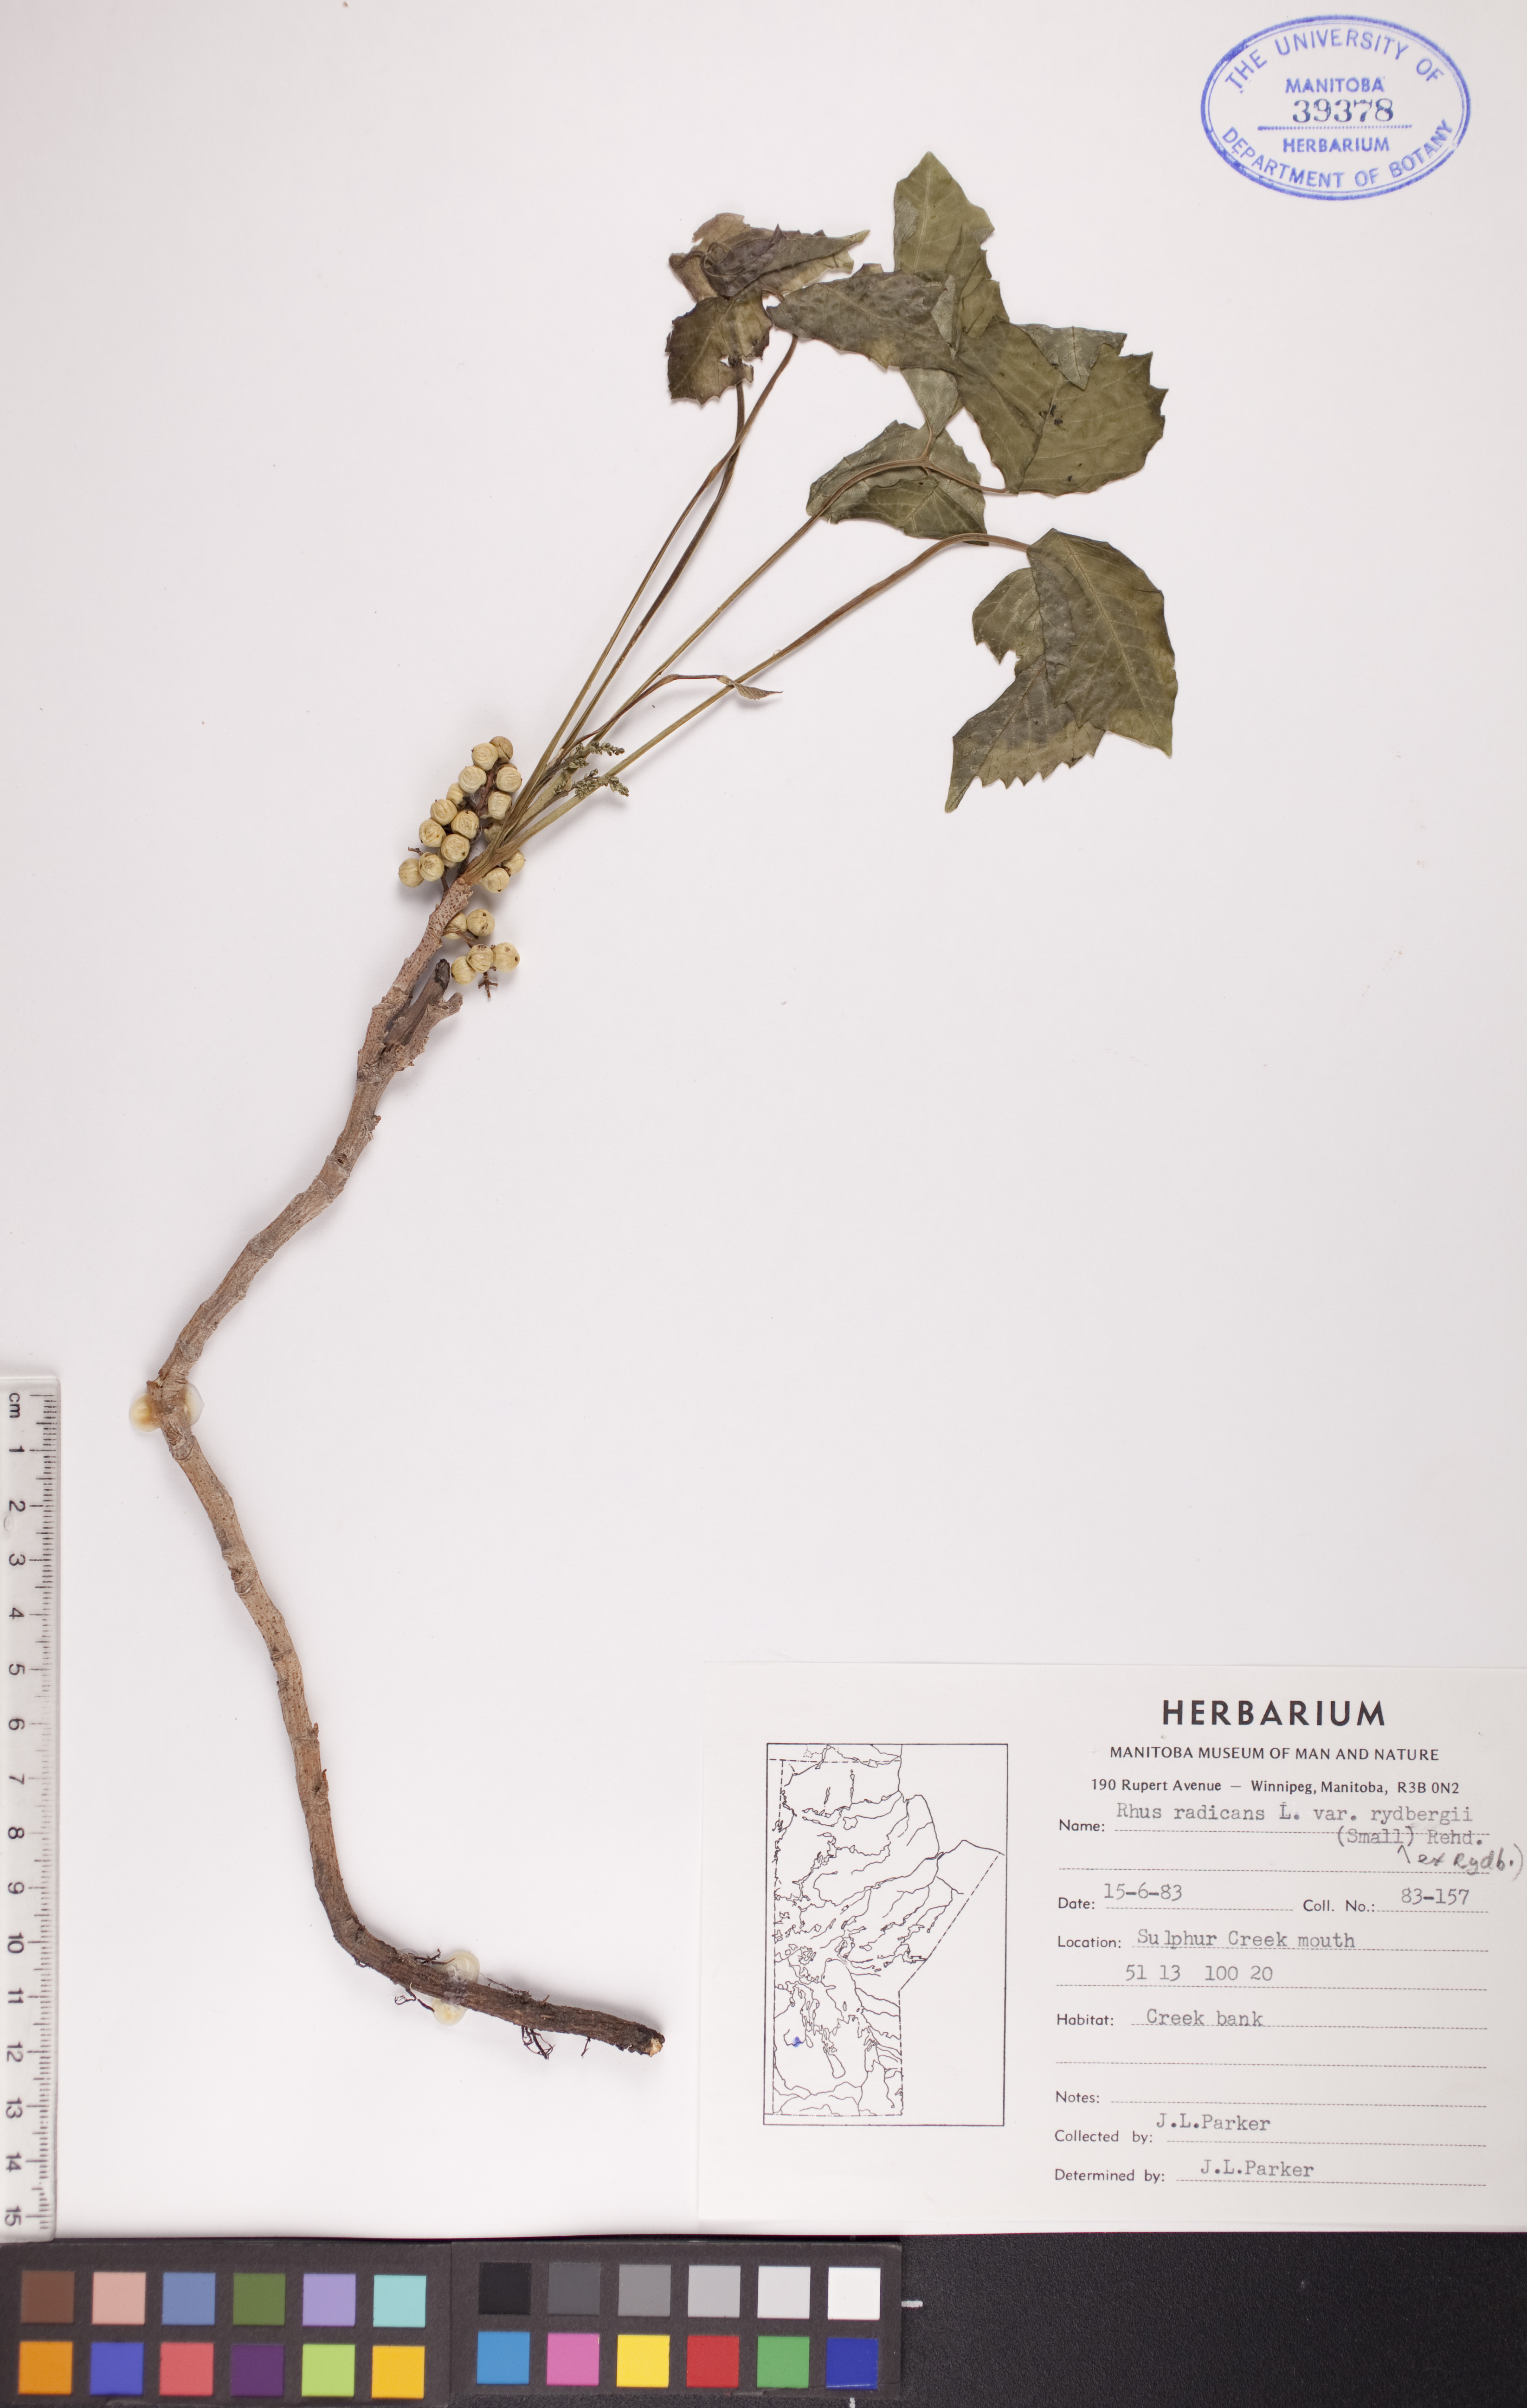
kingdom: Plantae
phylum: Tracheophyta
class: Magnoliopsida
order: Sapindales
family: Anacardiaceae
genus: Toxicodendron
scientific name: Toxicodendron rydbergii
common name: Rydberg's poison-ivy
